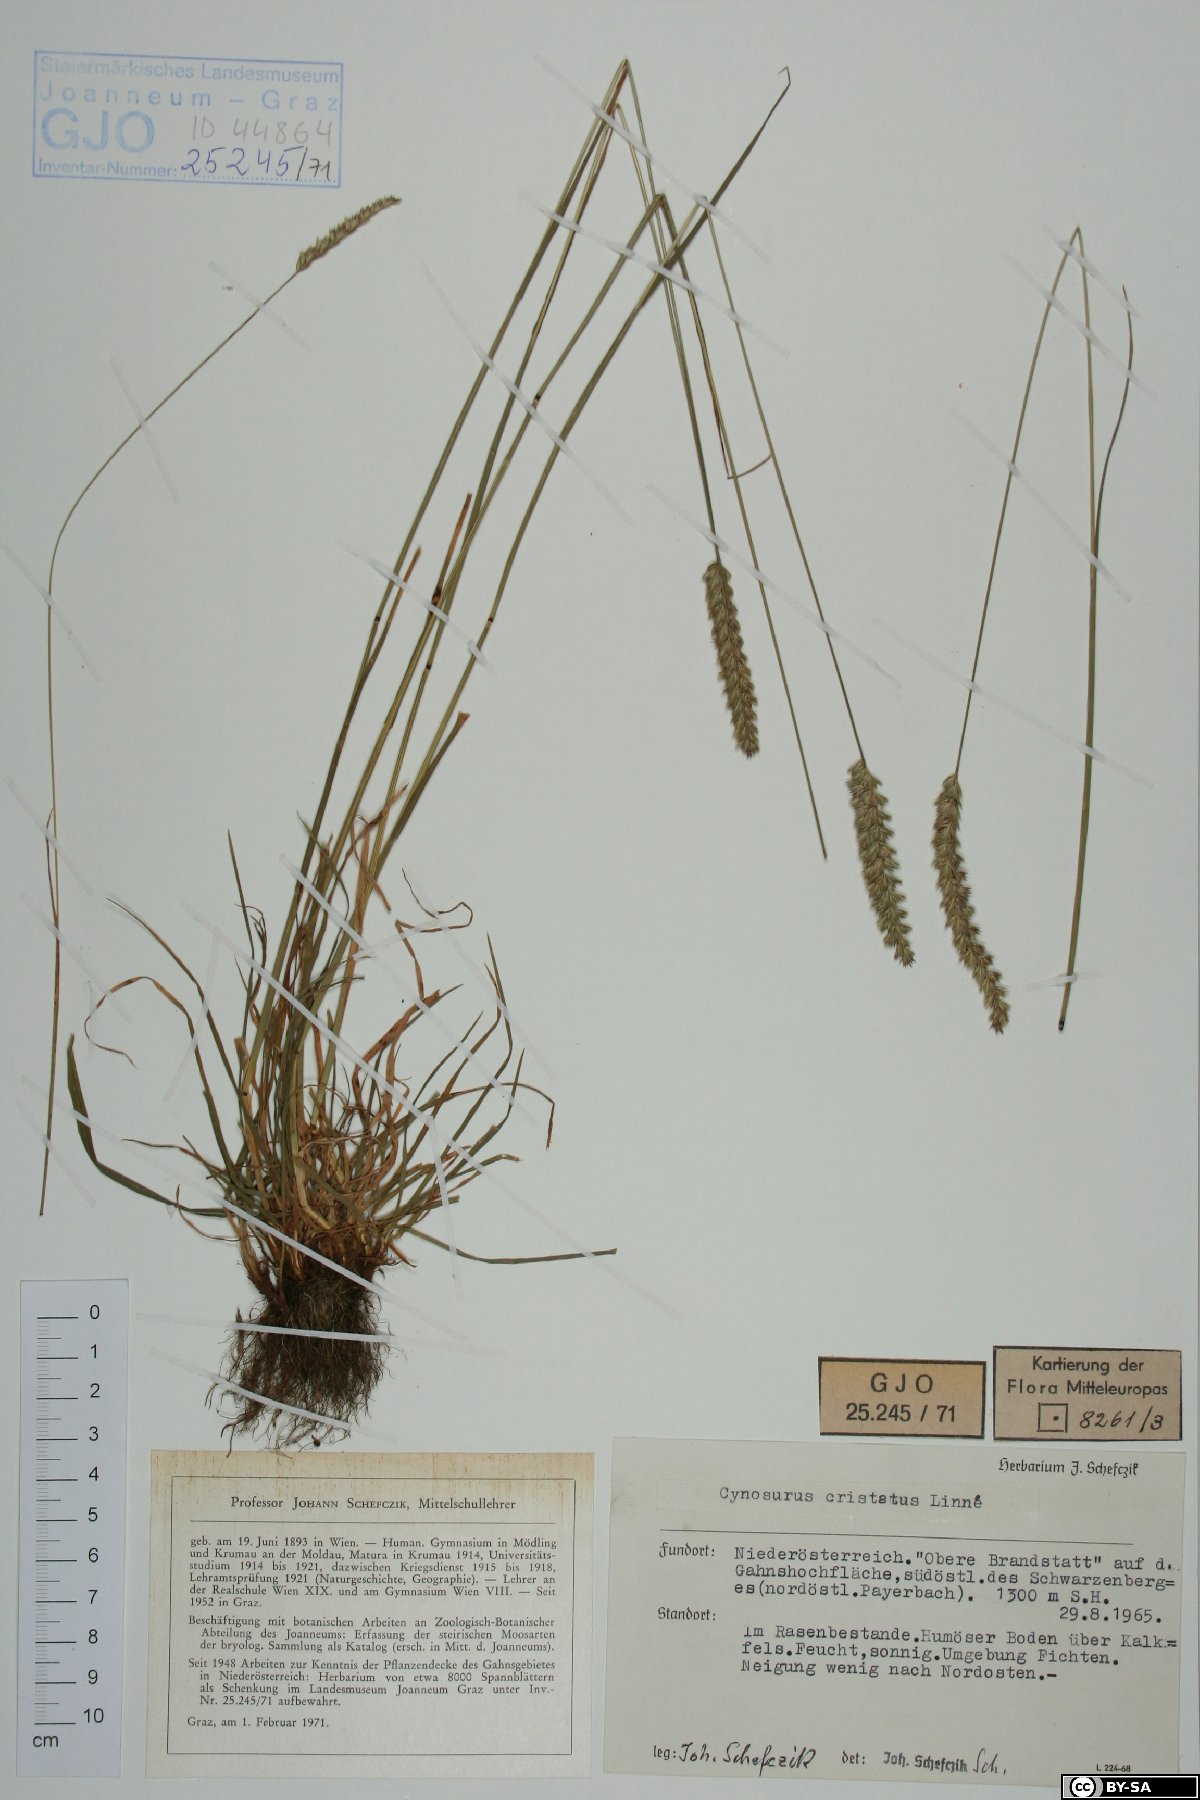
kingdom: Plantae
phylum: Tracheophyta
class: Liliopsida
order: Poales
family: Poaceae
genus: Cynosurus
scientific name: Cynosurus cristatus
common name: Crested dog's-tail
